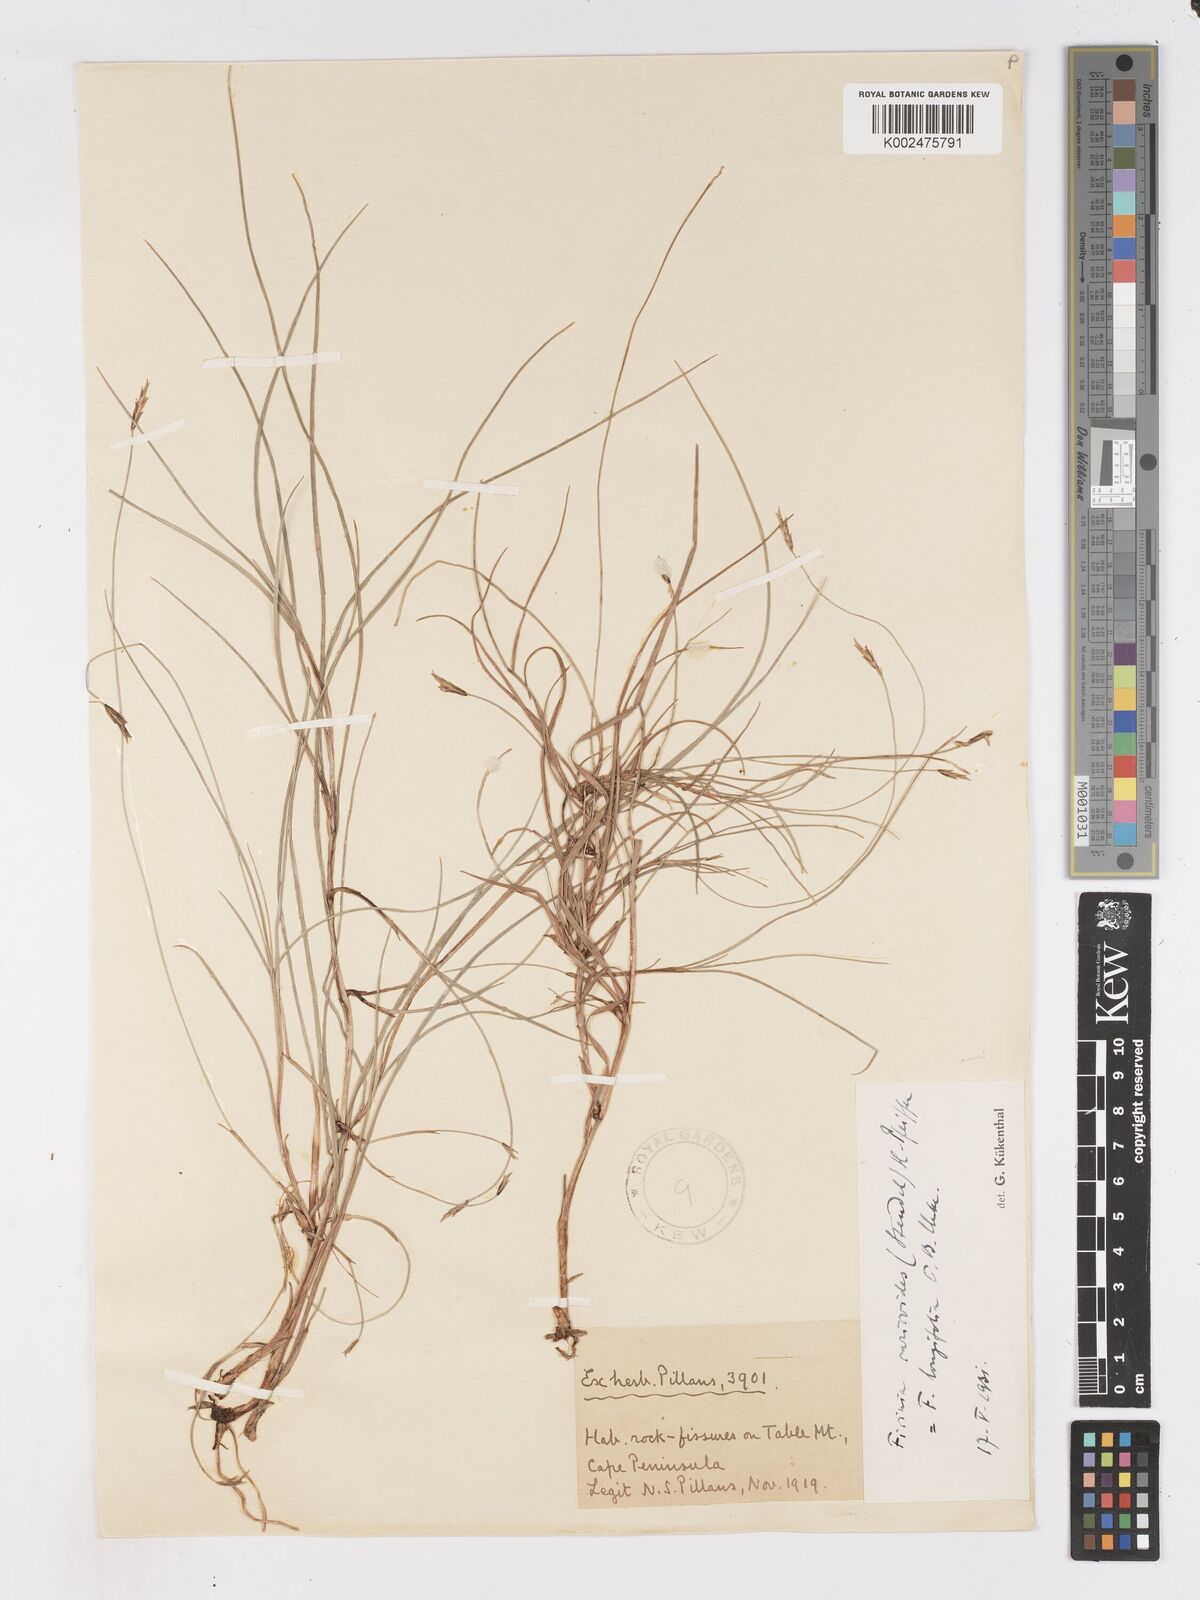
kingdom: Plantae
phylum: Tracheophyta
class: Liliopsida
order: Poales
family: Cyperaceae
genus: Ficinia
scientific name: Ficinia angustifolia
